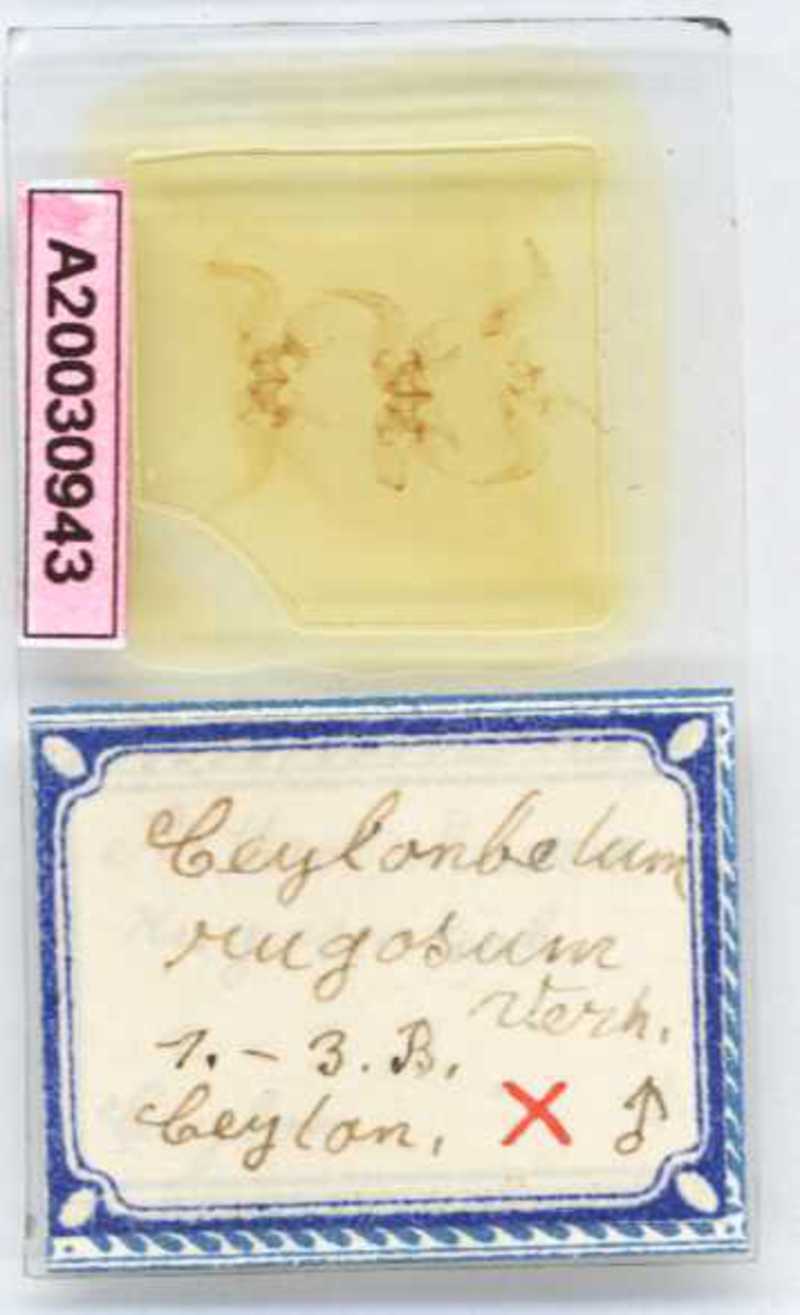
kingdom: Animalia
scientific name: Animalia
